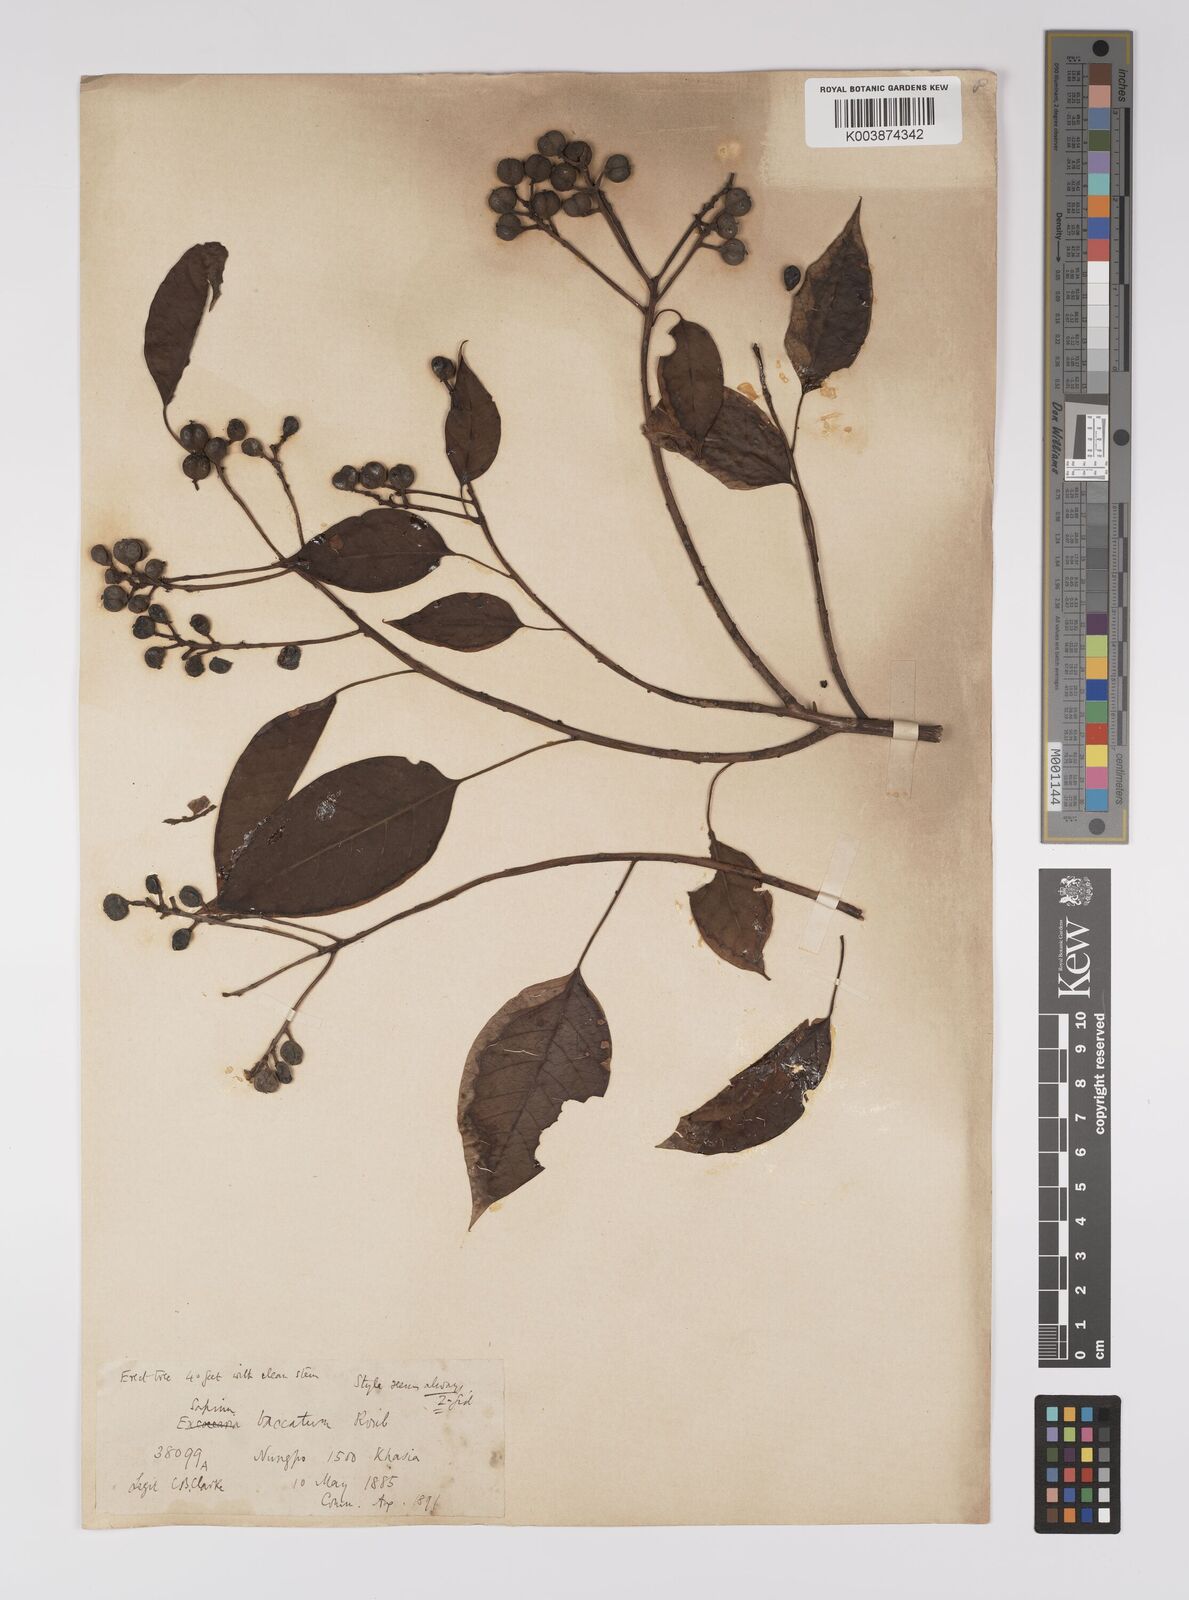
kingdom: Plantae
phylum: Tracheophyta
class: Magnoliopsida
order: Malpighiales
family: Euphorbiaceae
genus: Balakata
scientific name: Balakata baccata
